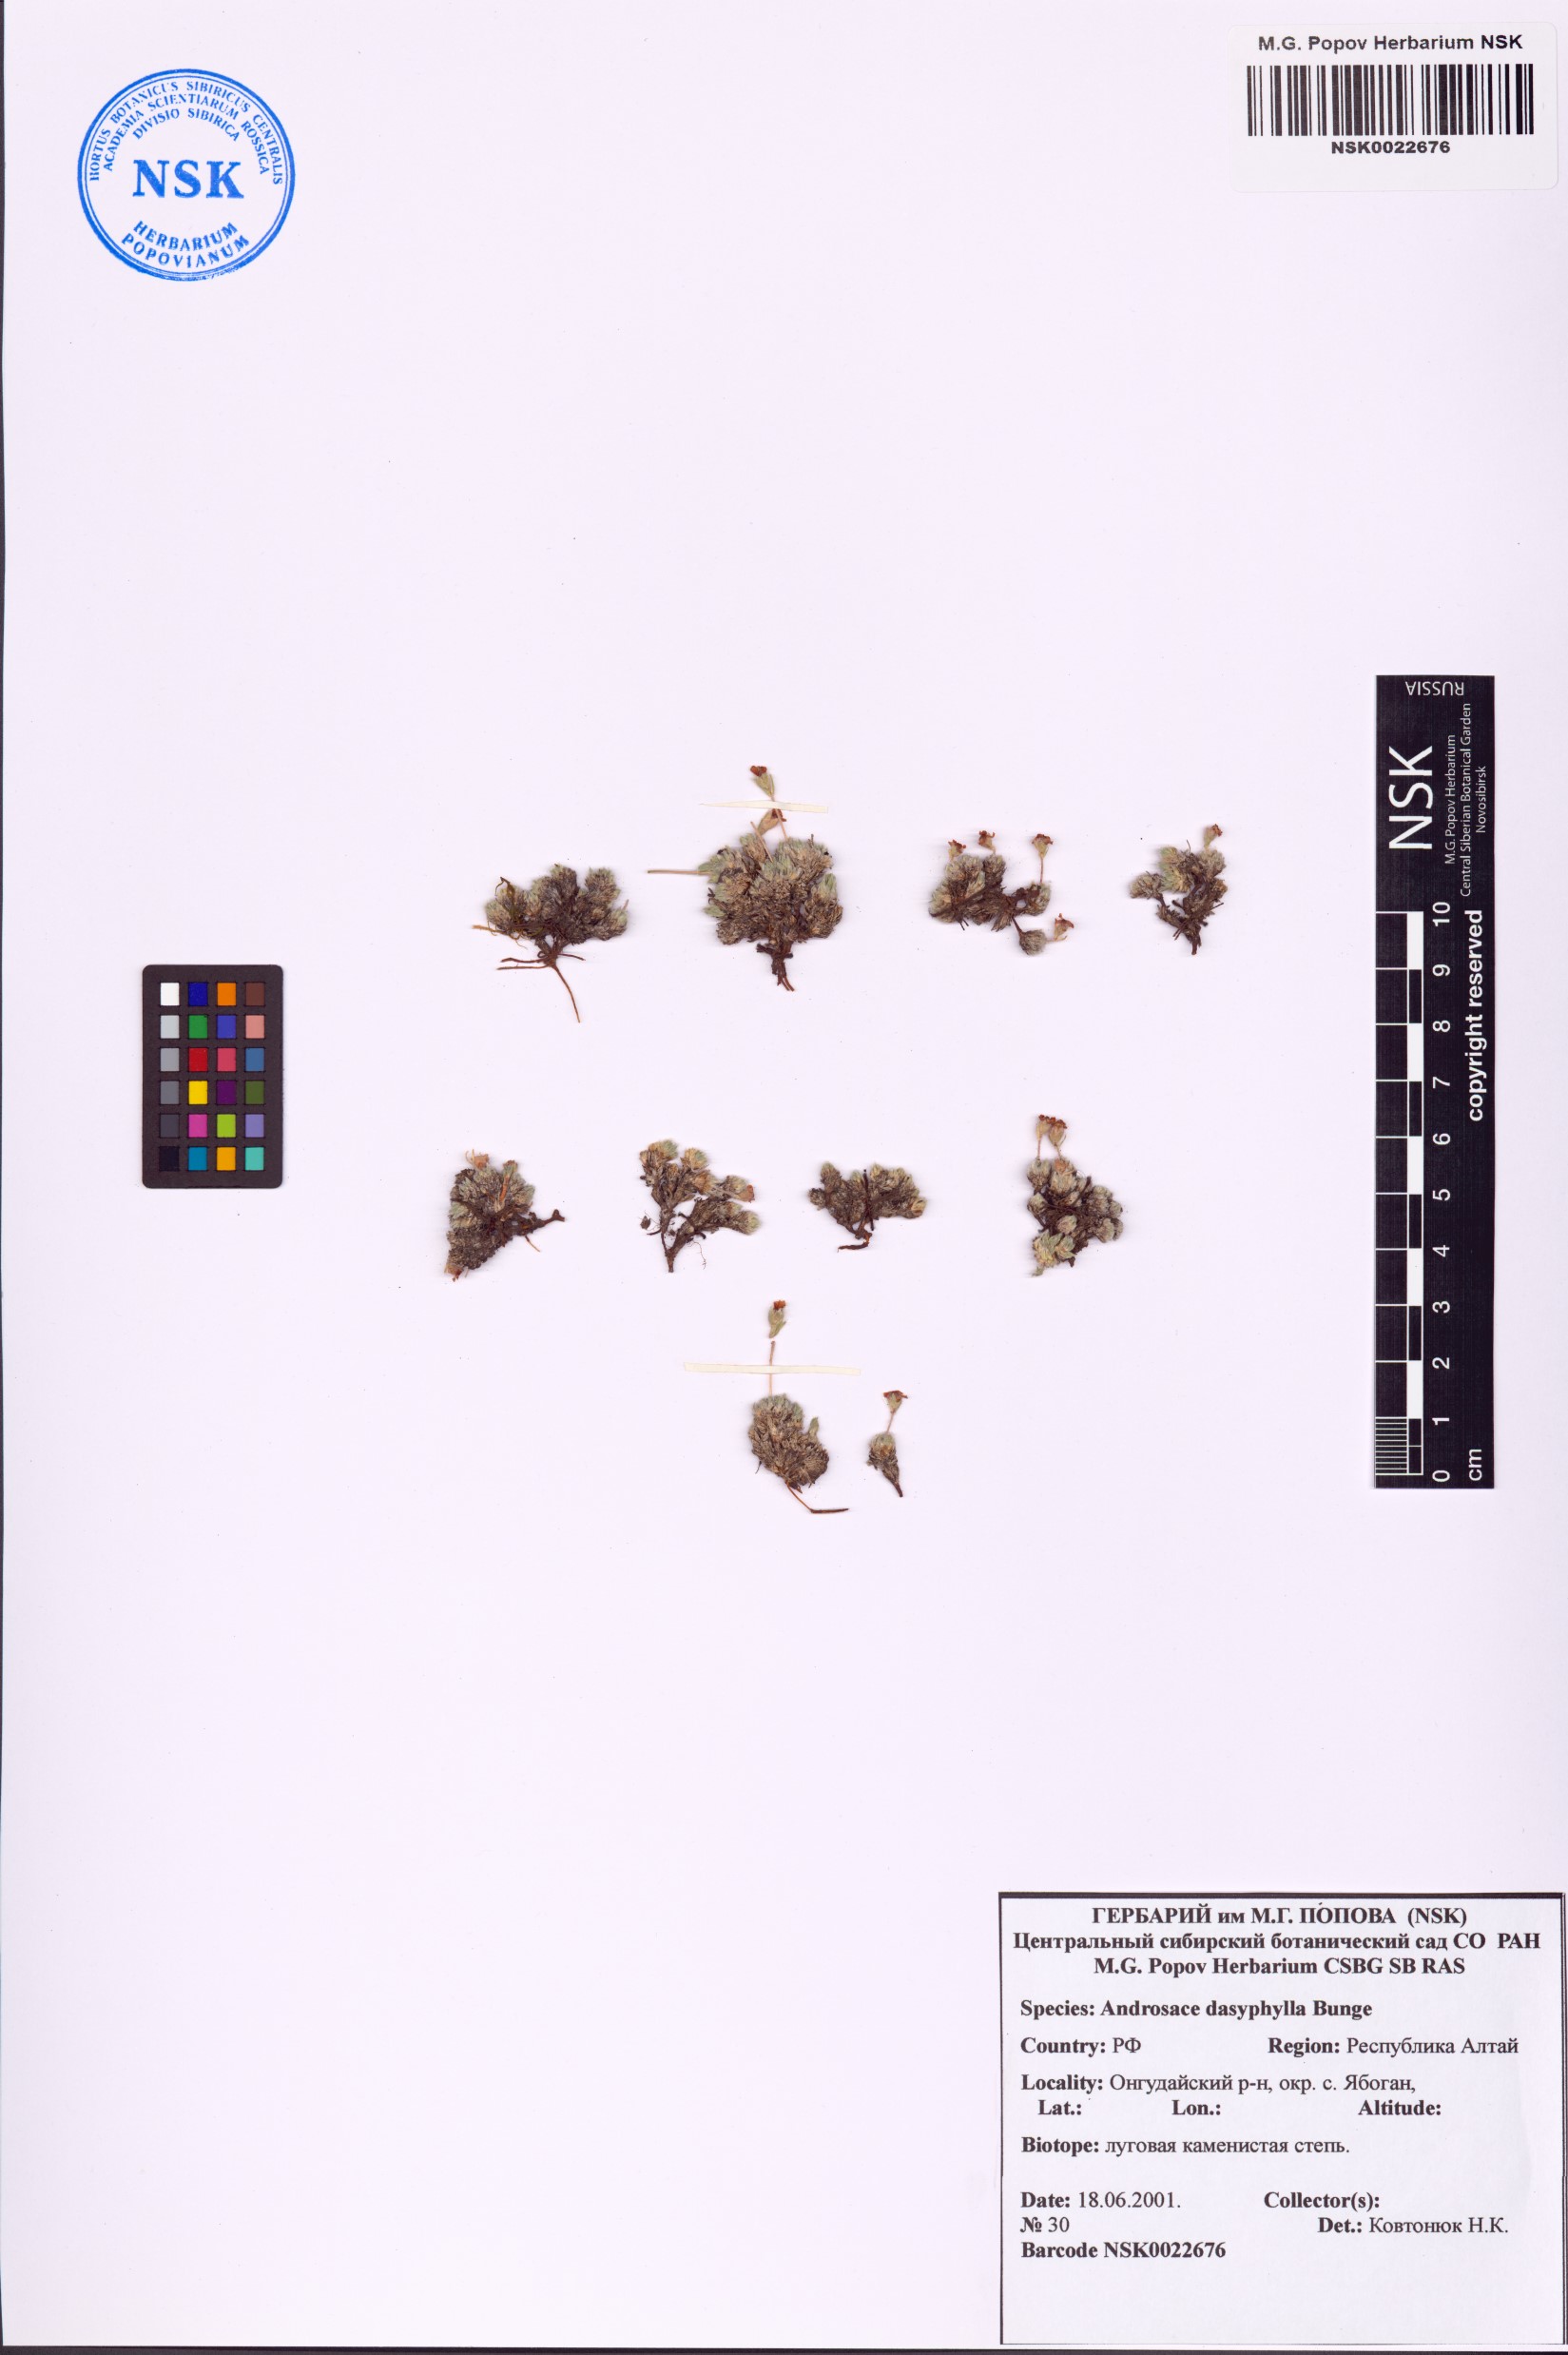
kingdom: Plantae
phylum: Tracheophyta
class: Magnoliopsida
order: Ericales
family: Primulaceae
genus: Androsace
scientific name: Androsace dasyphylla
